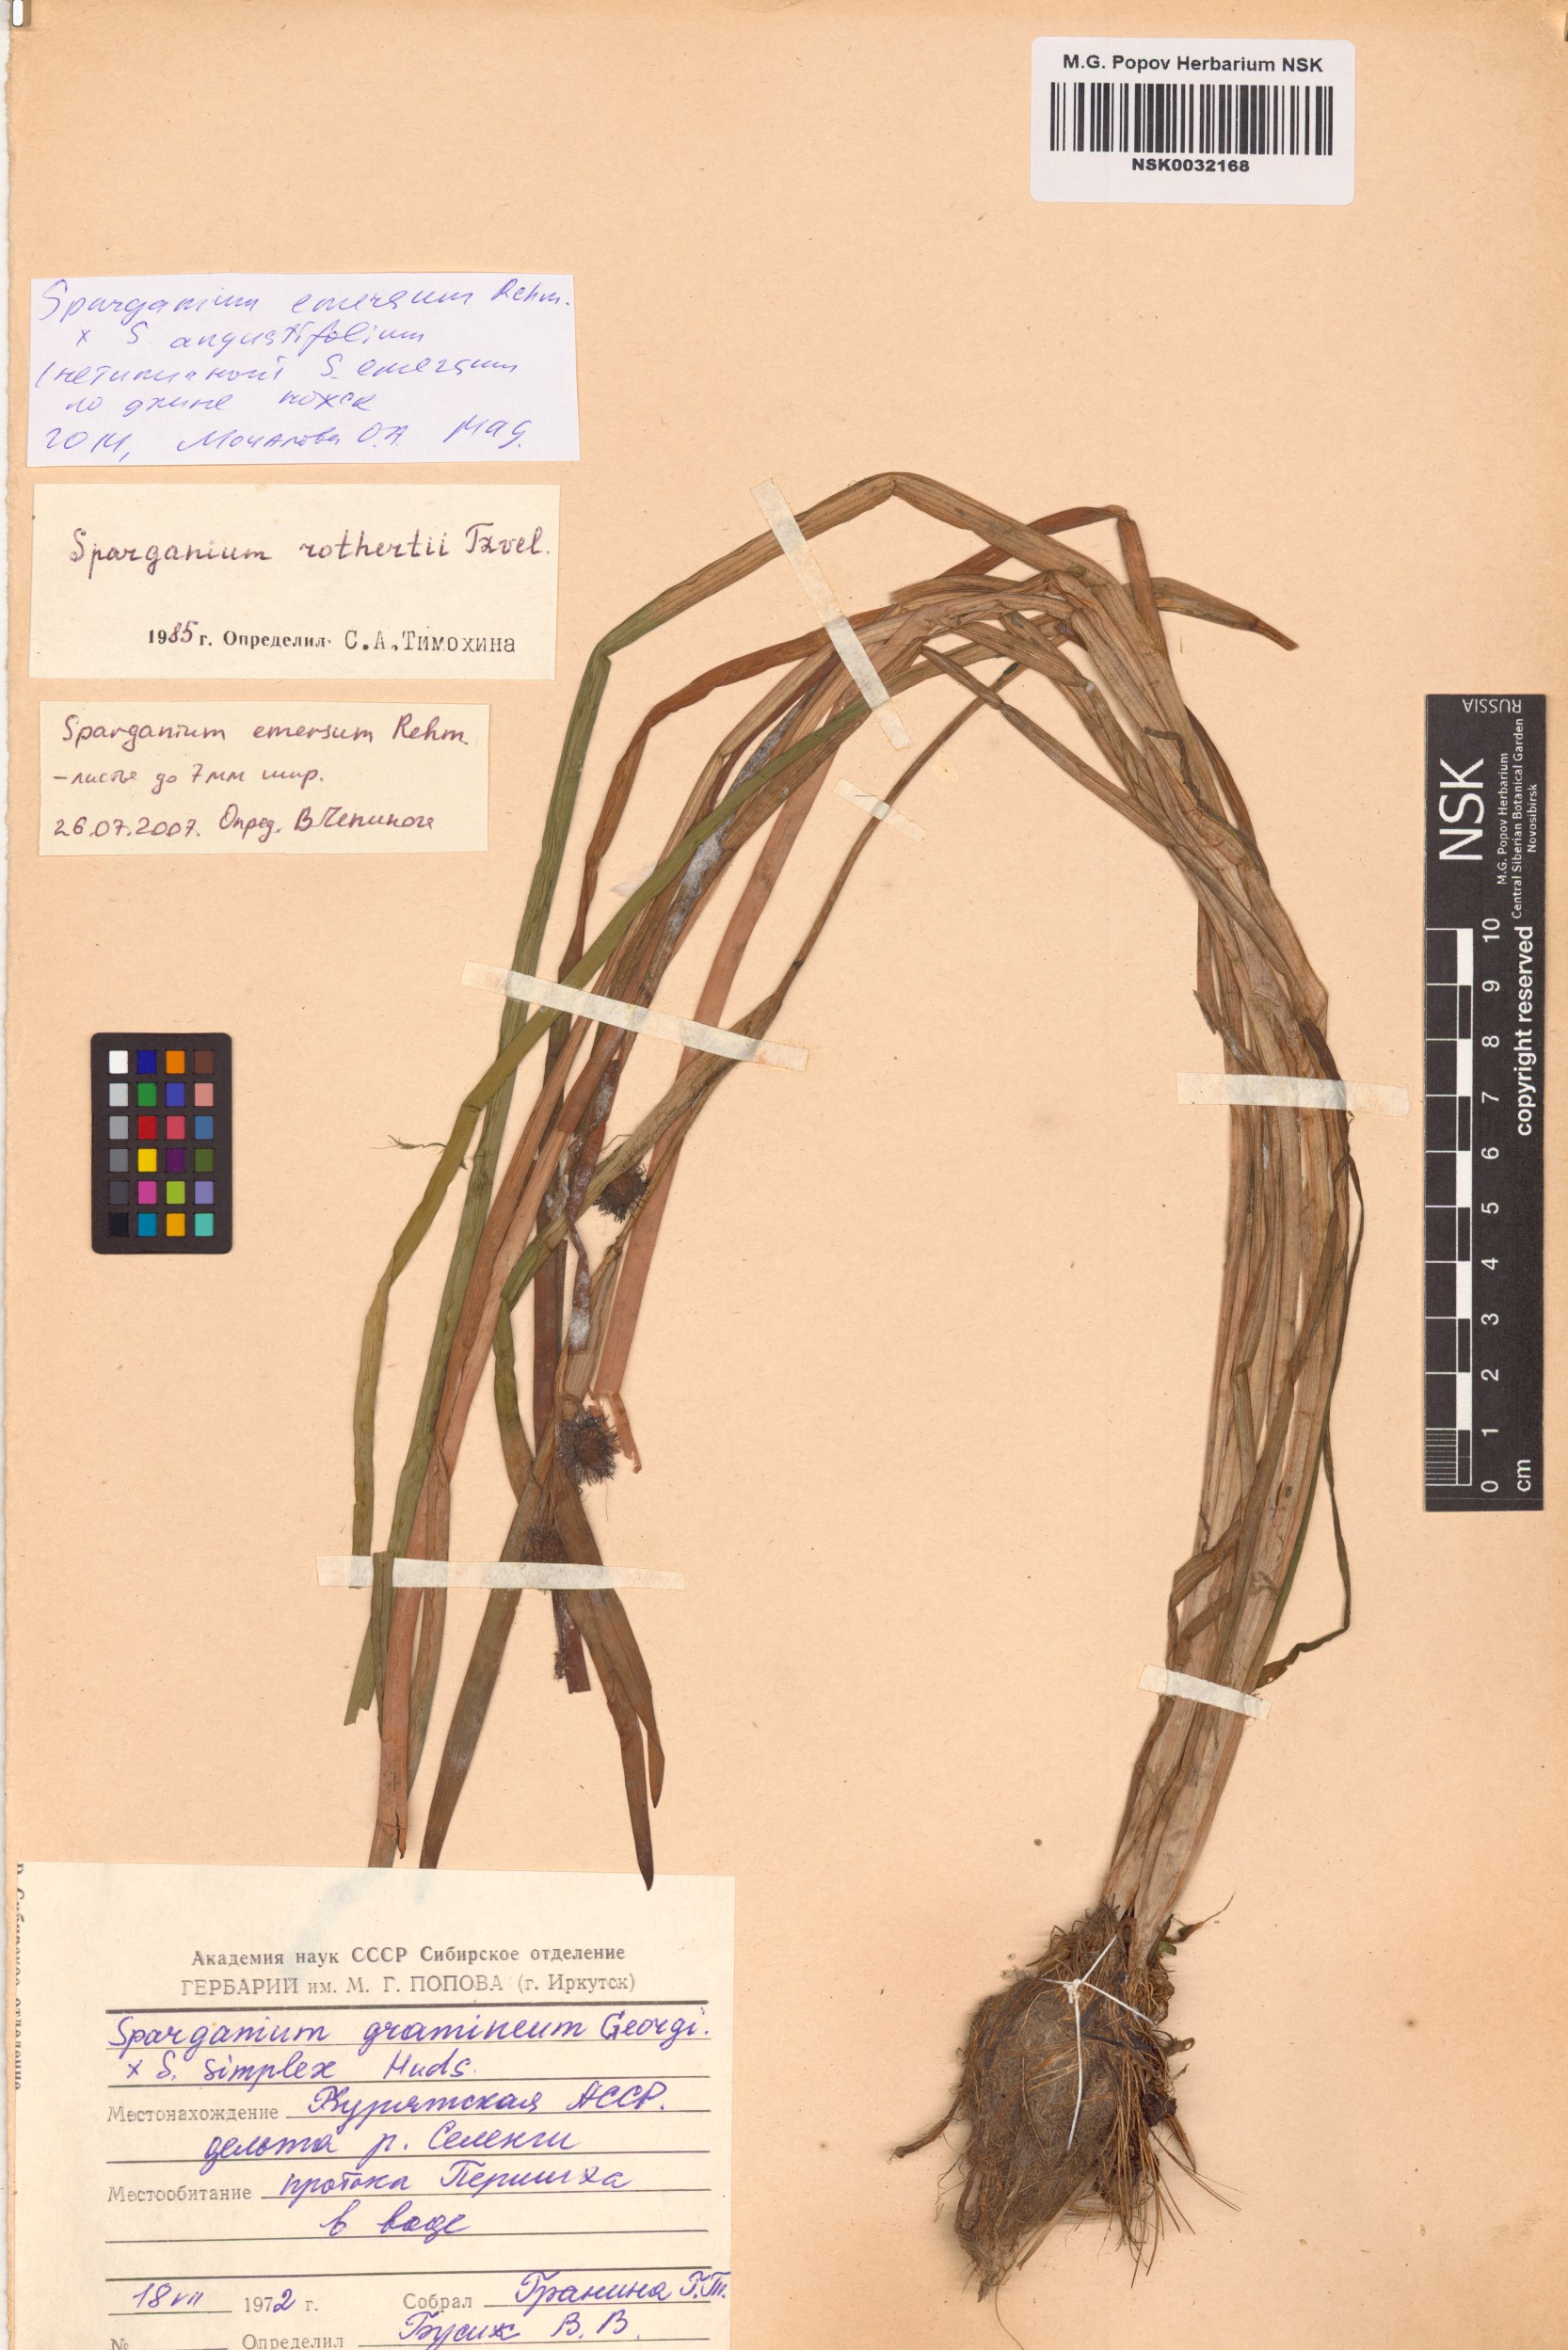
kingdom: Plantae
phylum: Tracheophyta
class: Liliopsida
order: Poales
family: Typhaceae
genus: Sparganium
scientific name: Sparganium emersum
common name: Unbranched bur-reed
